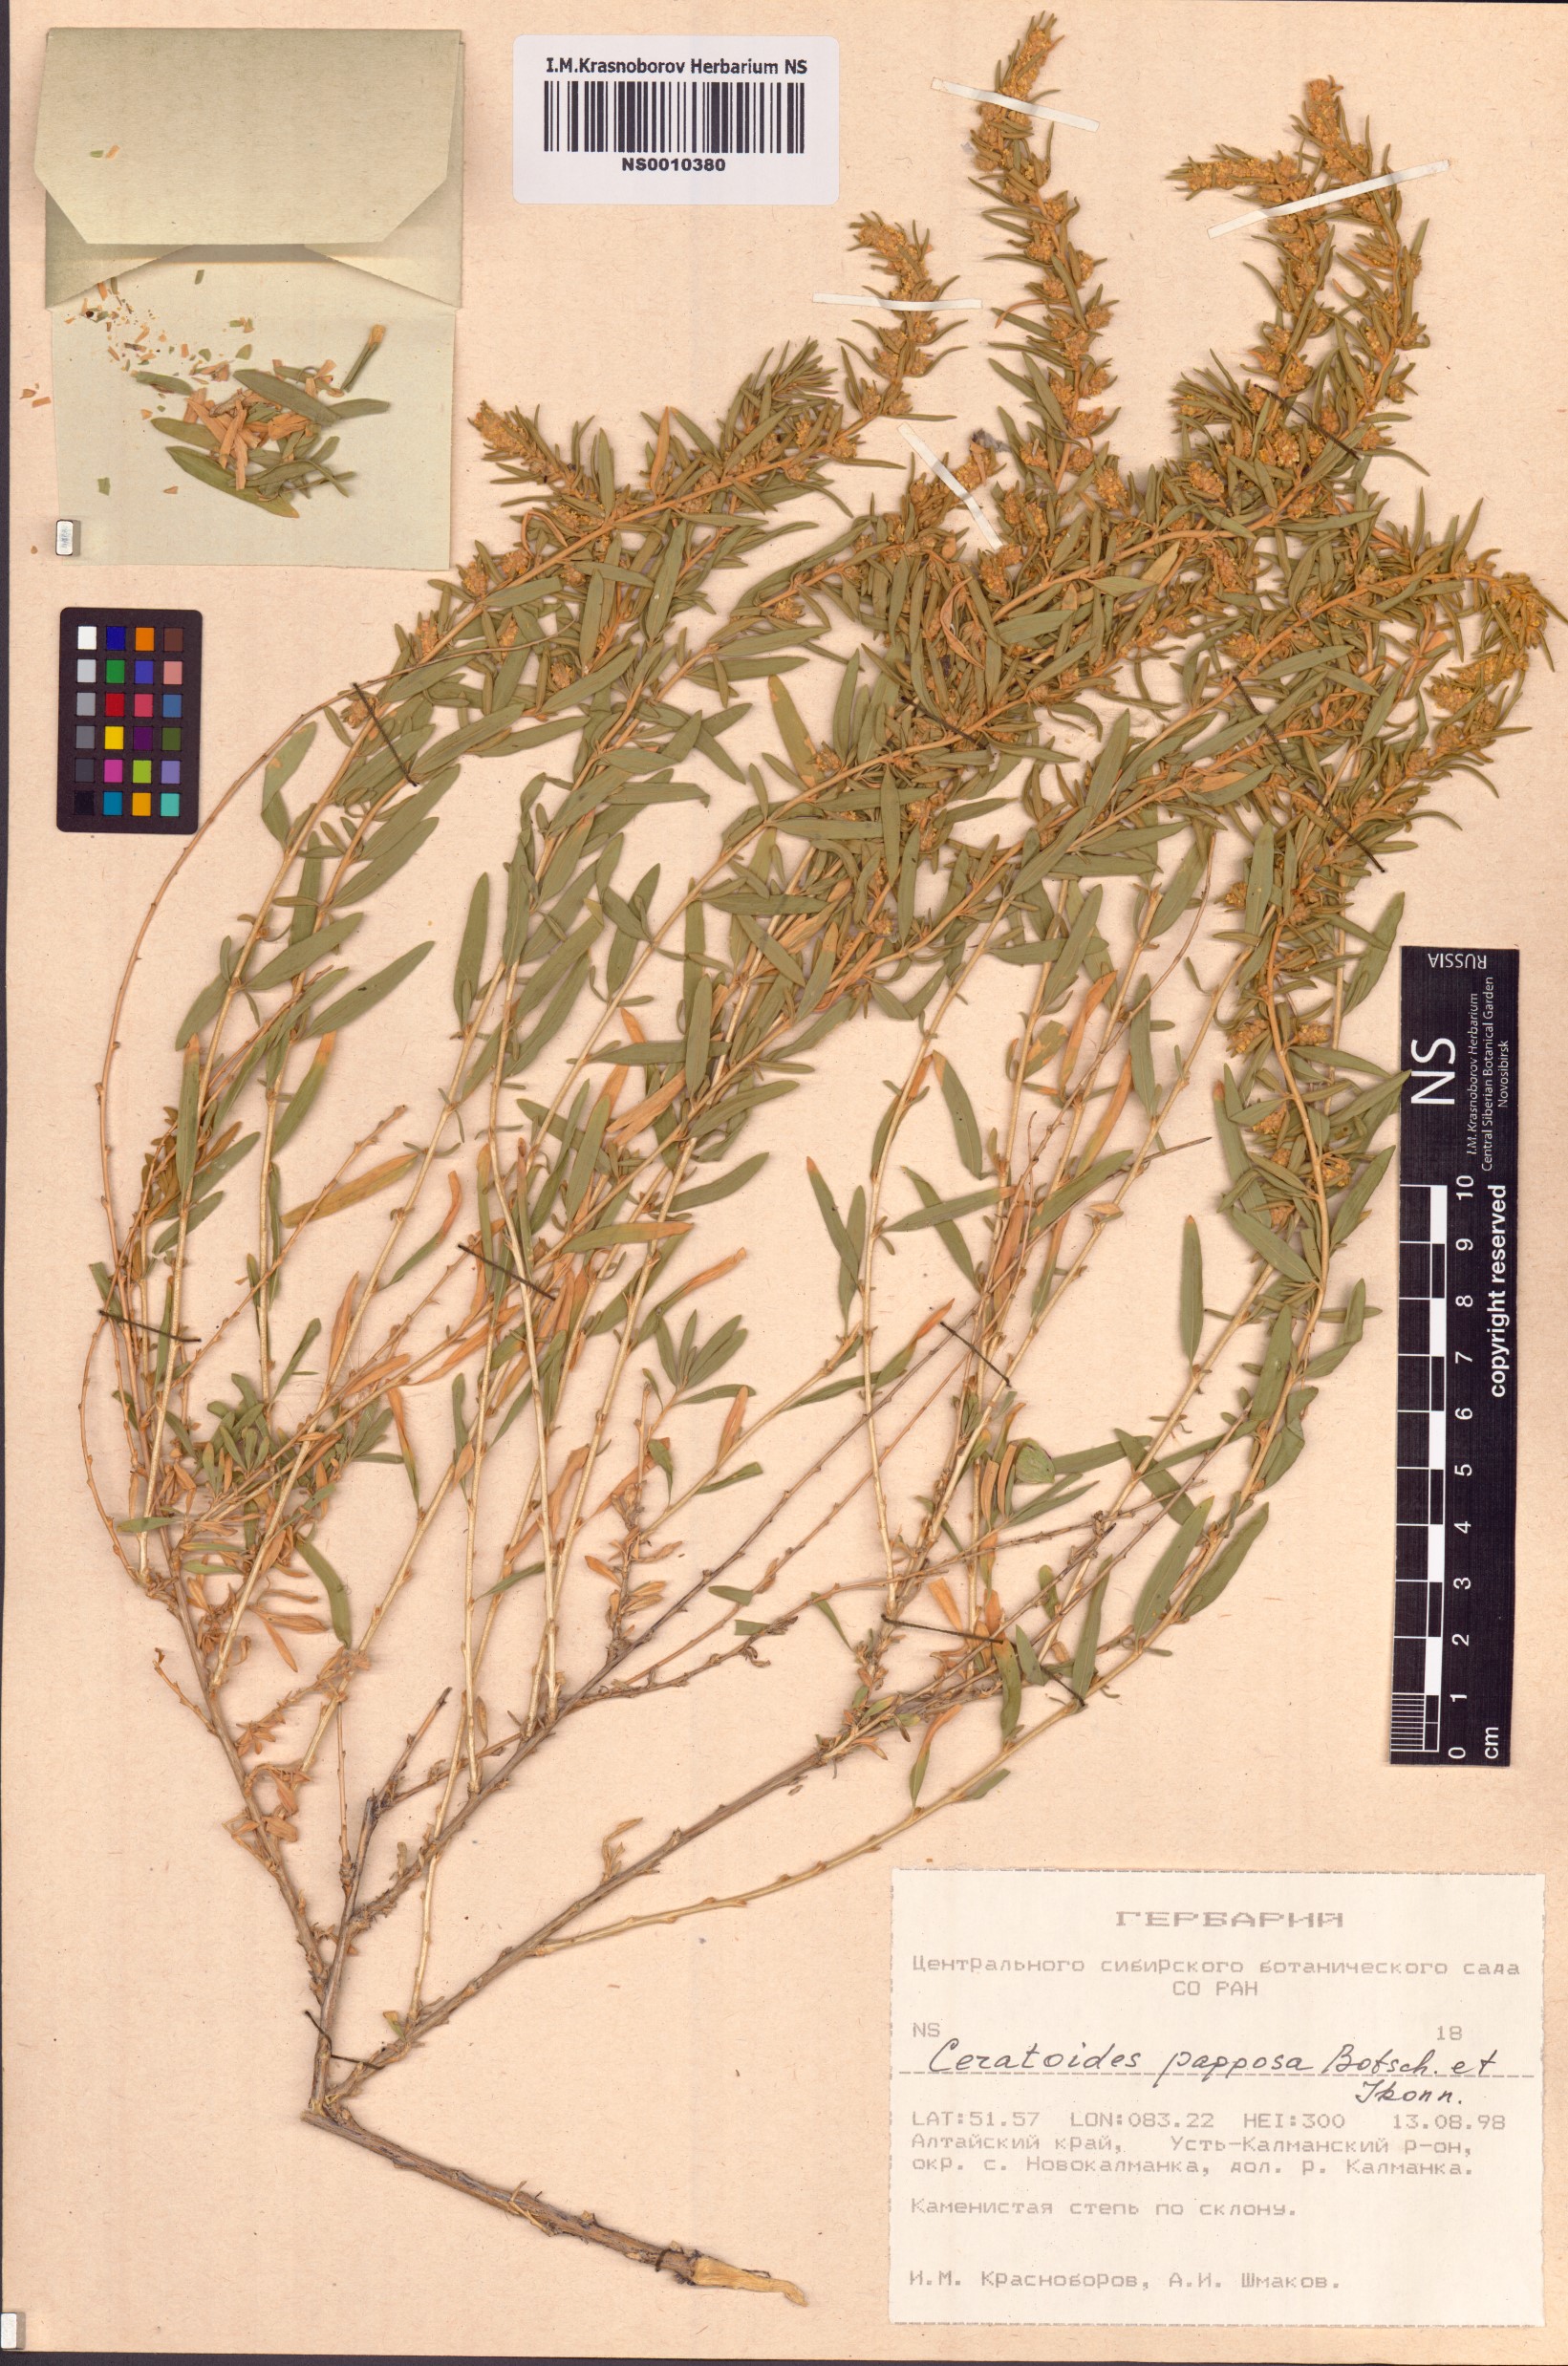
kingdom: Plantae
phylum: Tracheophyta
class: Magnoliopsida
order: Caryophyllales
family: Amaranthaceae
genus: Krascheninnikovia
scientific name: Krascheninnikovia ceratoides
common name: Pamirian winterfat
